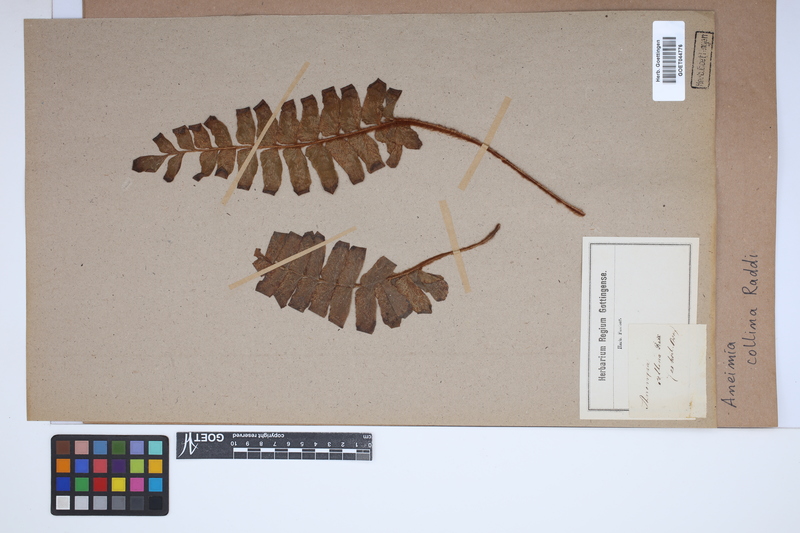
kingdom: Plantae
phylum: Tracheophyta
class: Polypodiopsida
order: Schizaeales
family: Anemiaceae
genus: Anemia
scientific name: Anemia collina
